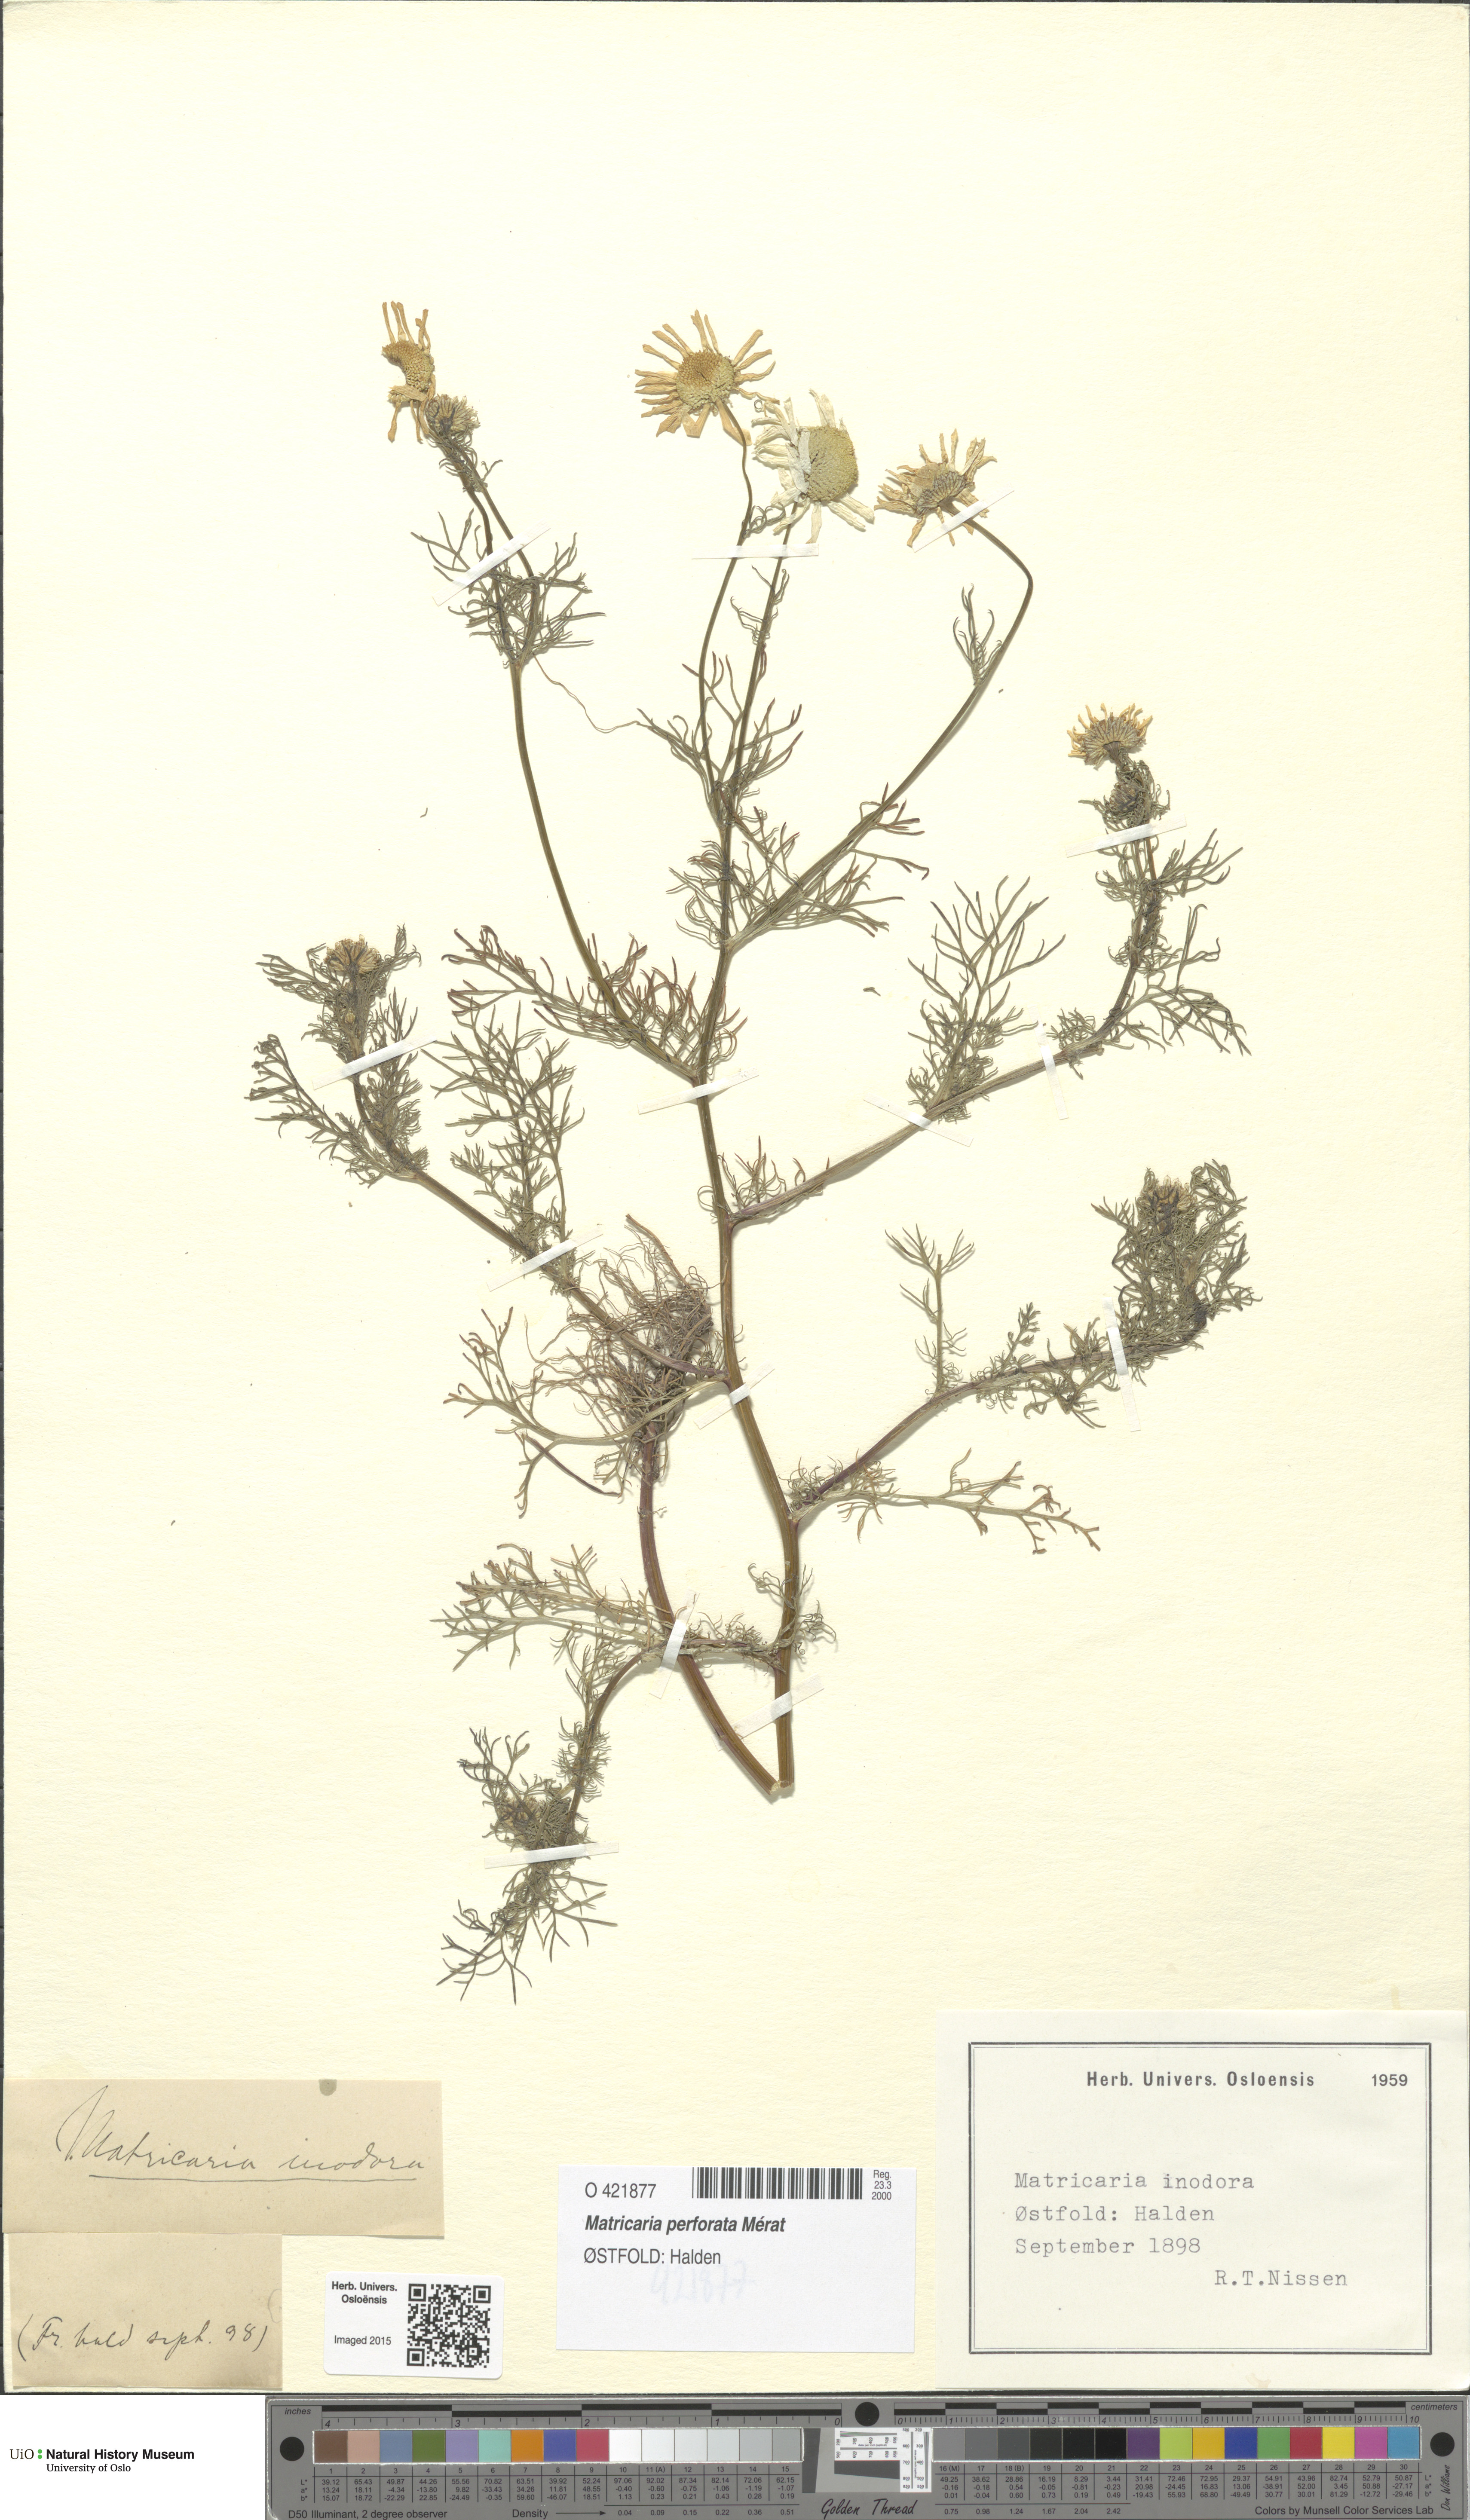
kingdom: Plantae
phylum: Tracheophyta
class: Magnoliopsida
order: Asterales
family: Asteraceae
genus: Tripleurospermum
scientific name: Tripleurospermum inodorum
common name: Scentless mayweed
